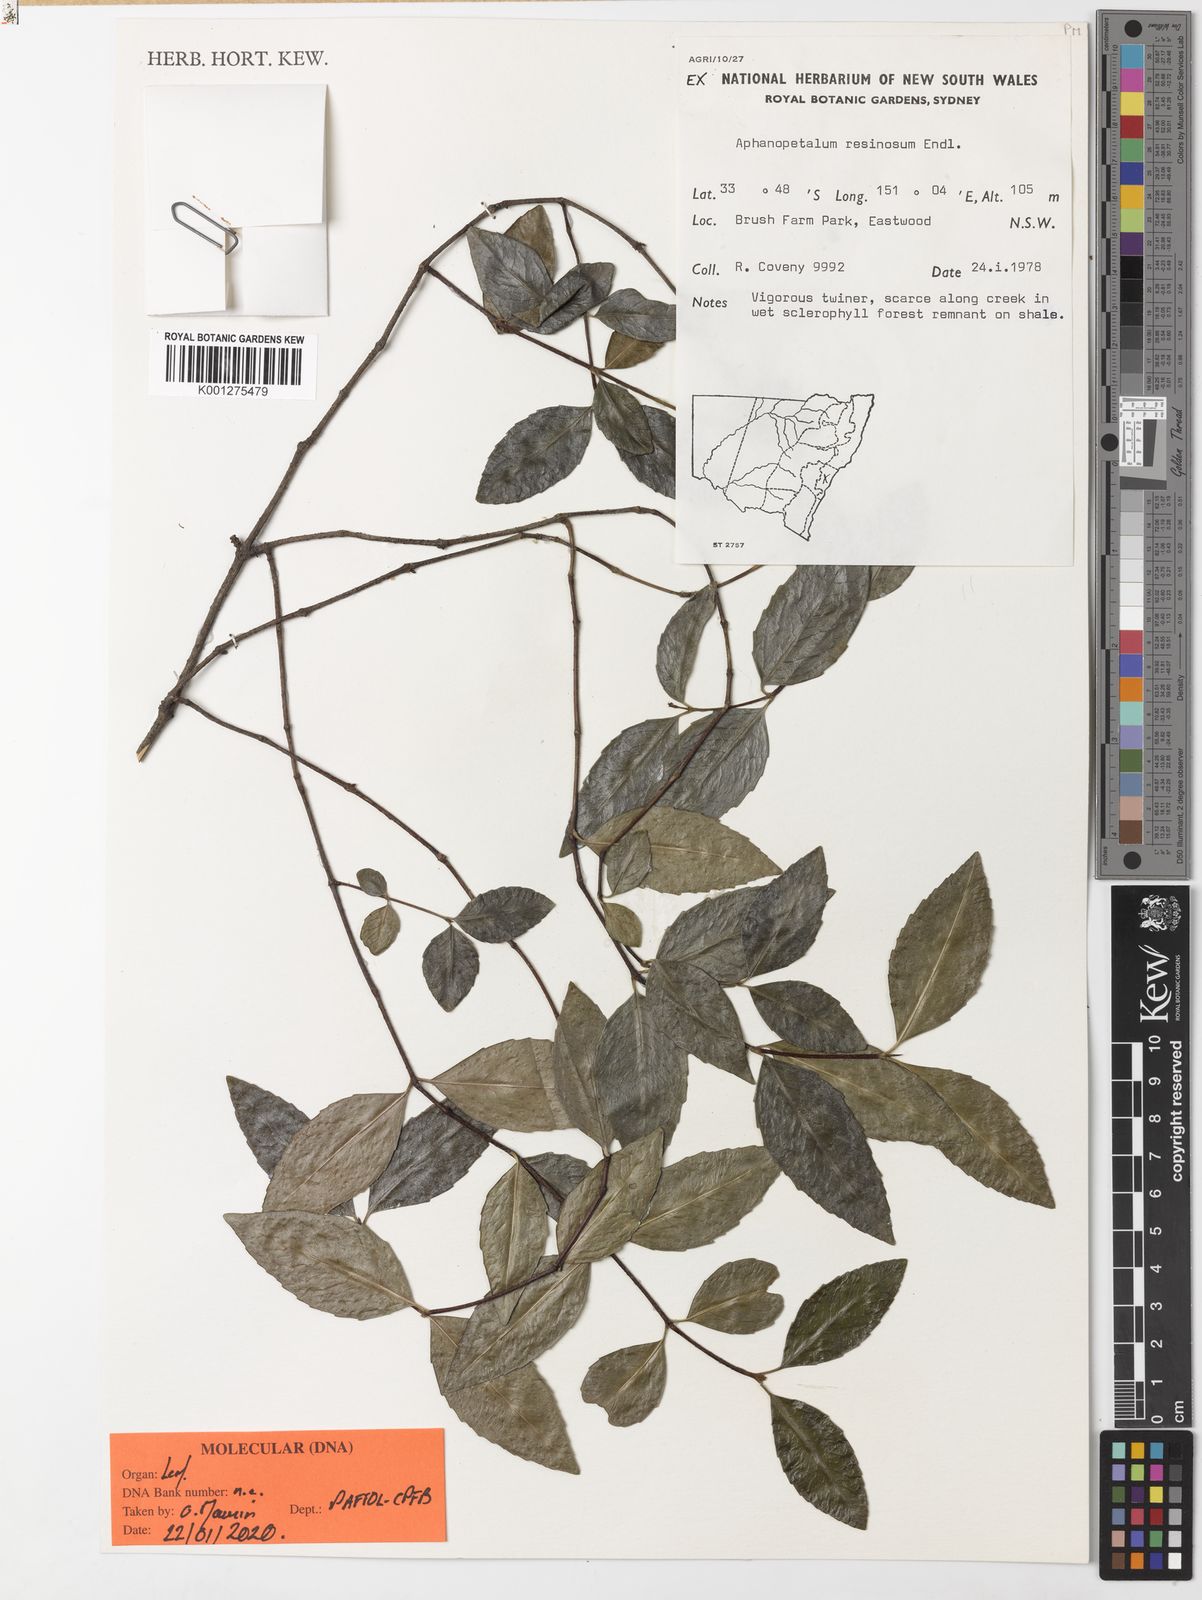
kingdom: Plantae
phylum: Tracheophyta
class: Magnoliopsida
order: Saxifragales
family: Aphanopetalaceae
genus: Aphanopetalum
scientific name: Aphanopetalum resinosum
